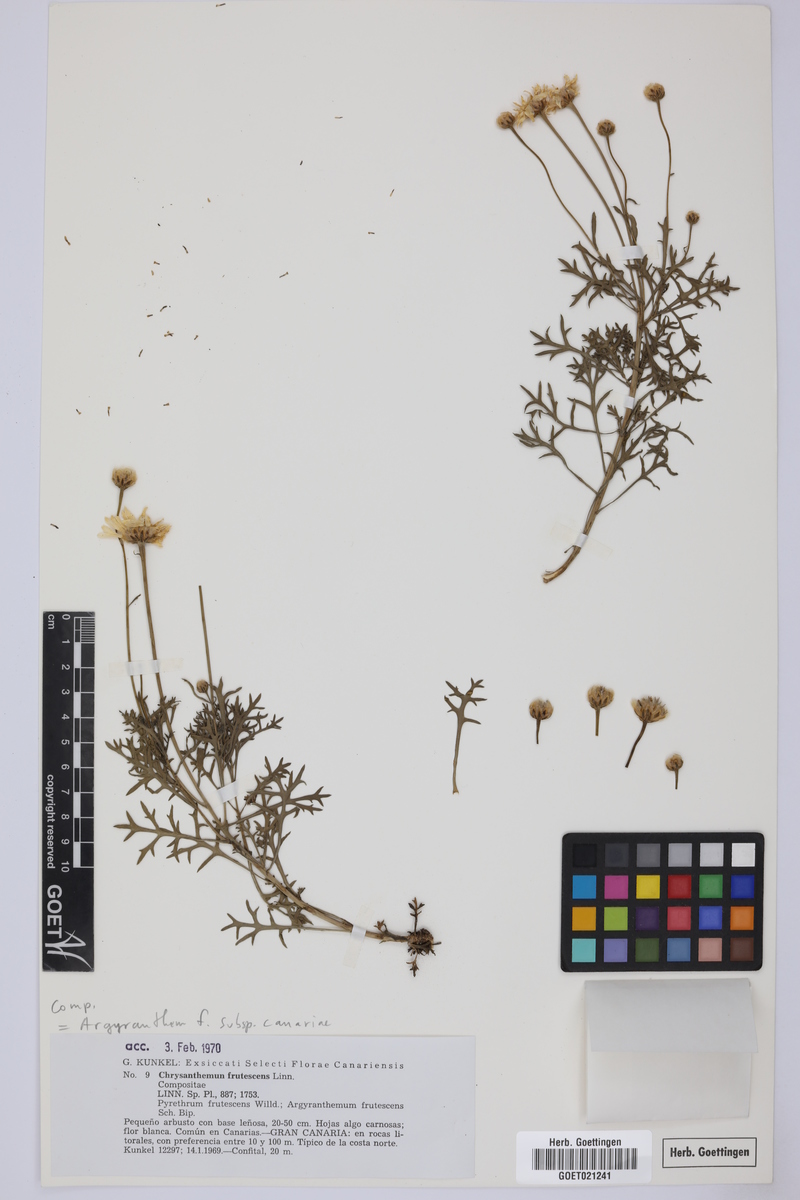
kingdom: Plantae
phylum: Tracheophyta
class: Magnoliopsida
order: Asterales
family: Asteraceae
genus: Argyranthemum
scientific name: Argyranthemum frutescens
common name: Paris daisy
